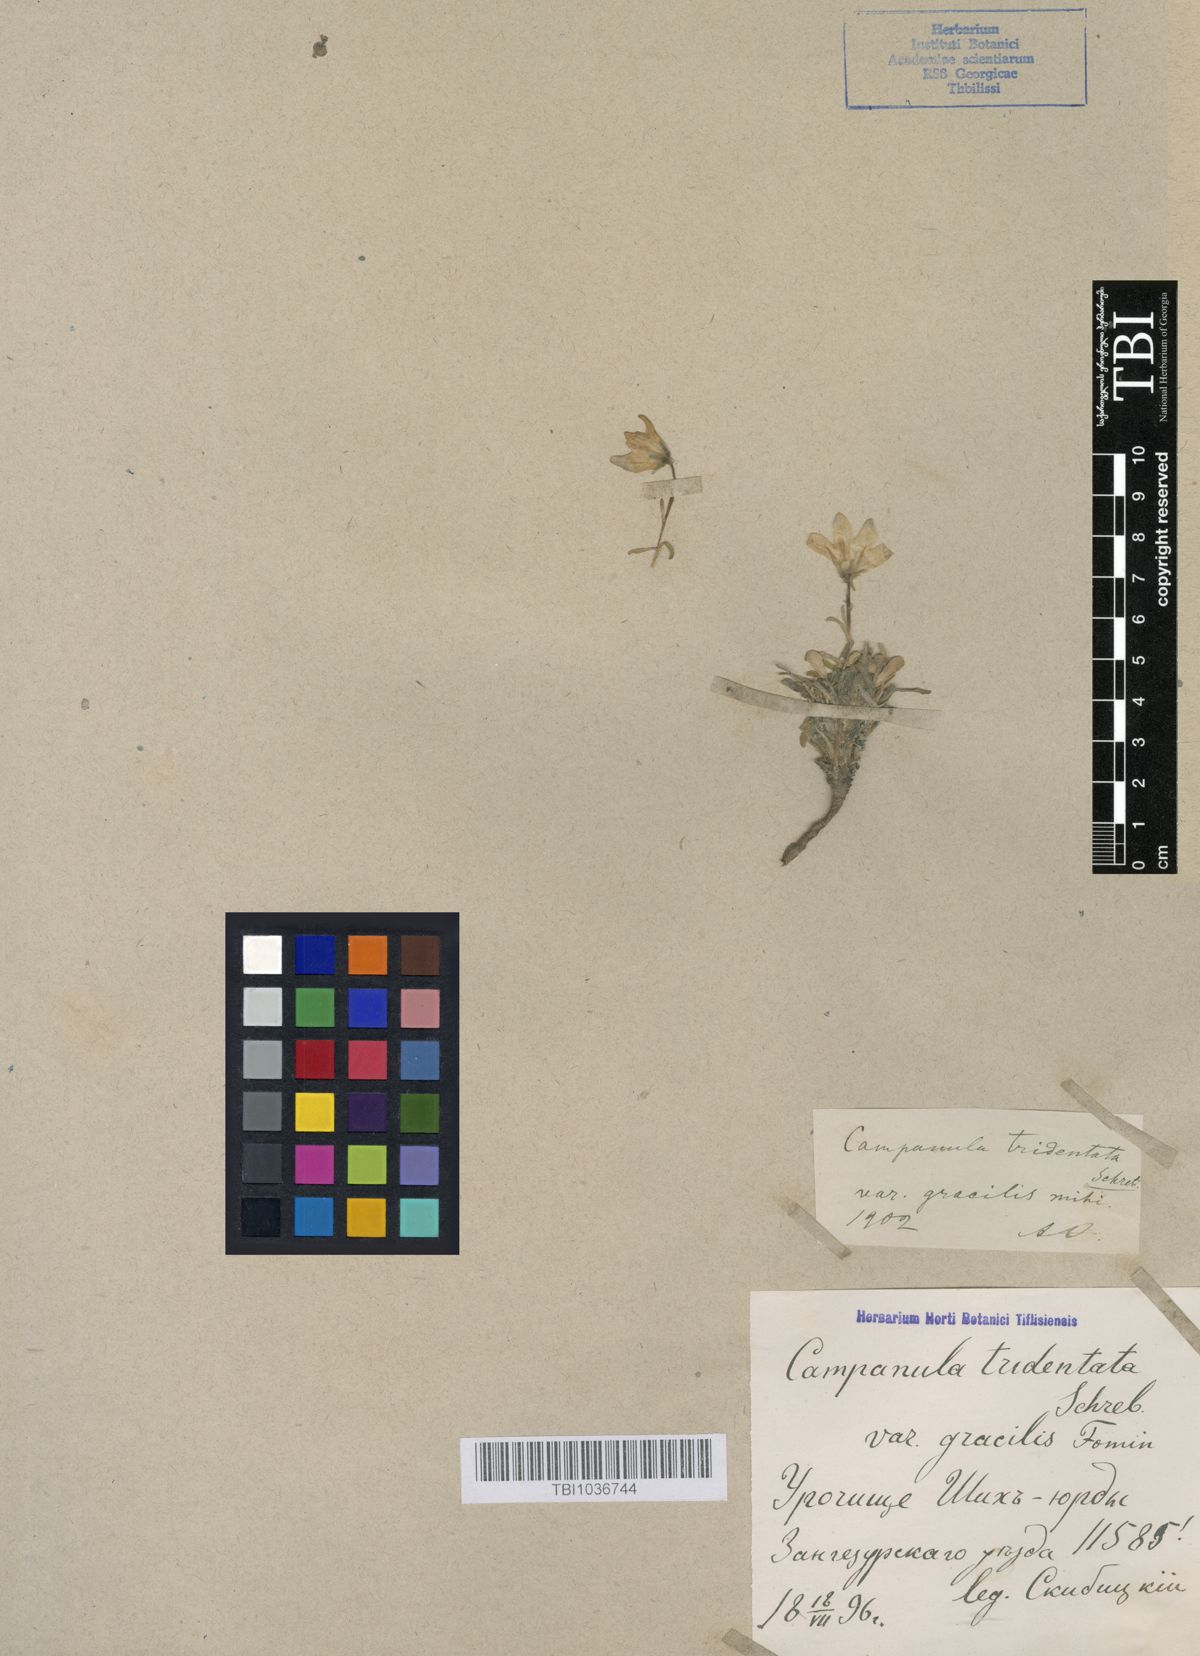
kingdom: Plantae
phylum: Tracheophyta
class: Magnoliopsida
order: Asterales
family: Campanulaceae
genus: Campanula
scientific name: Campanula tridentata
